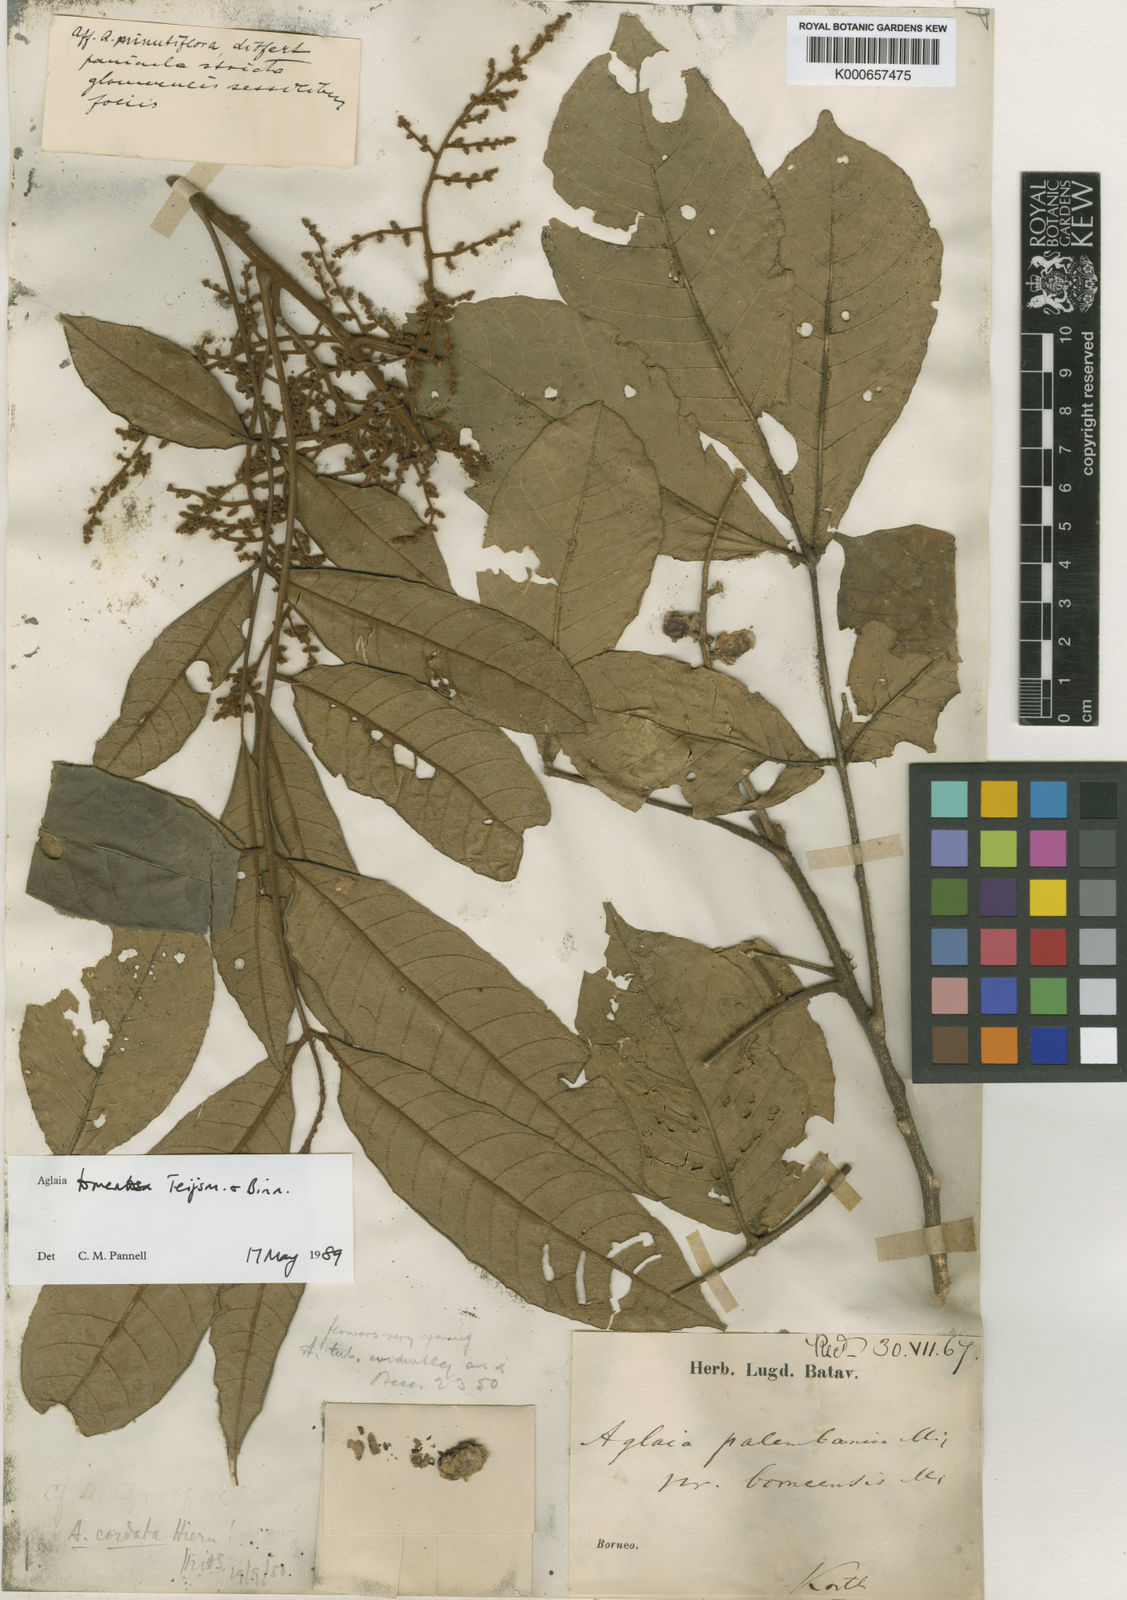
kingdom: Plantae
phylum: Tracheophyta
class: Magnoliopsida
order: Sapindales
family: Meliaceae
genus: Aglaia
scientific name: Aglaia tomentosa
